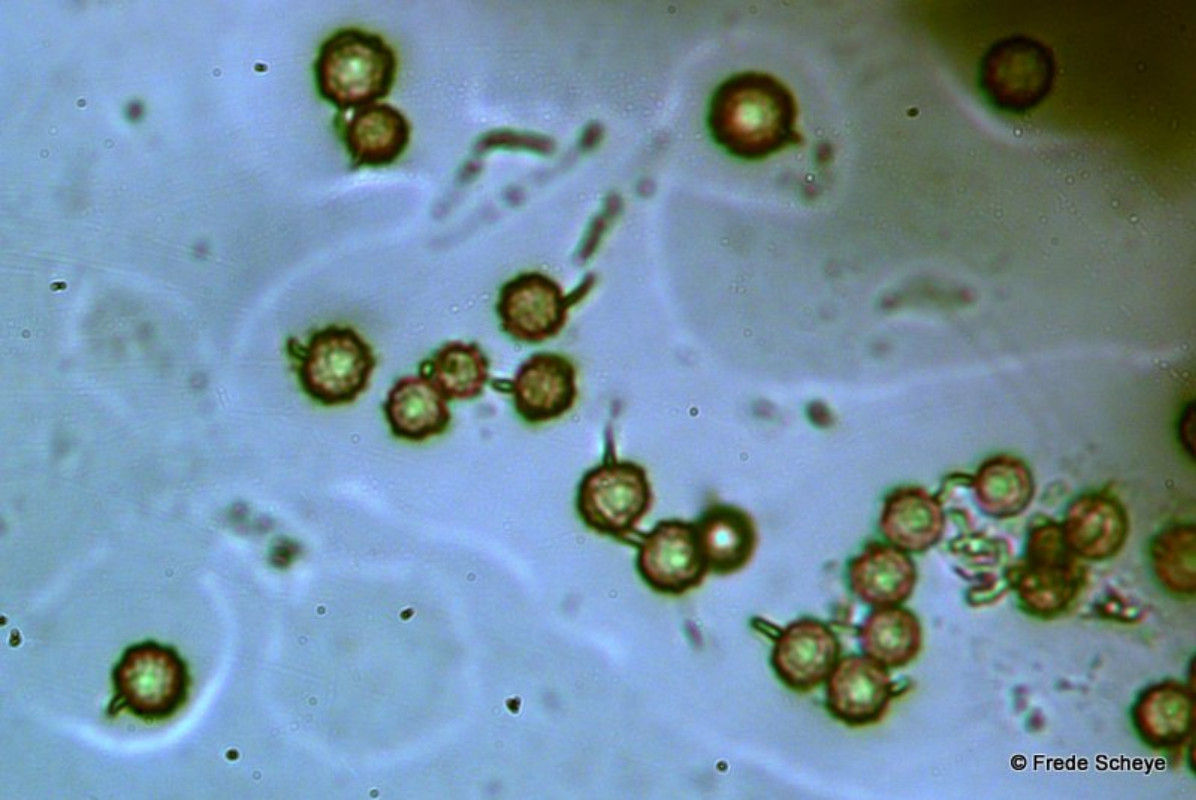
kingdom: Fungi
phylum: Basidiomycota
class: Agaricomycetes
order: Agaricales
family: Lycoperdaceae
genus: Lycoperdon
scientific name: Lycoperdon echinatum
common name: pindsvine-støvbold
